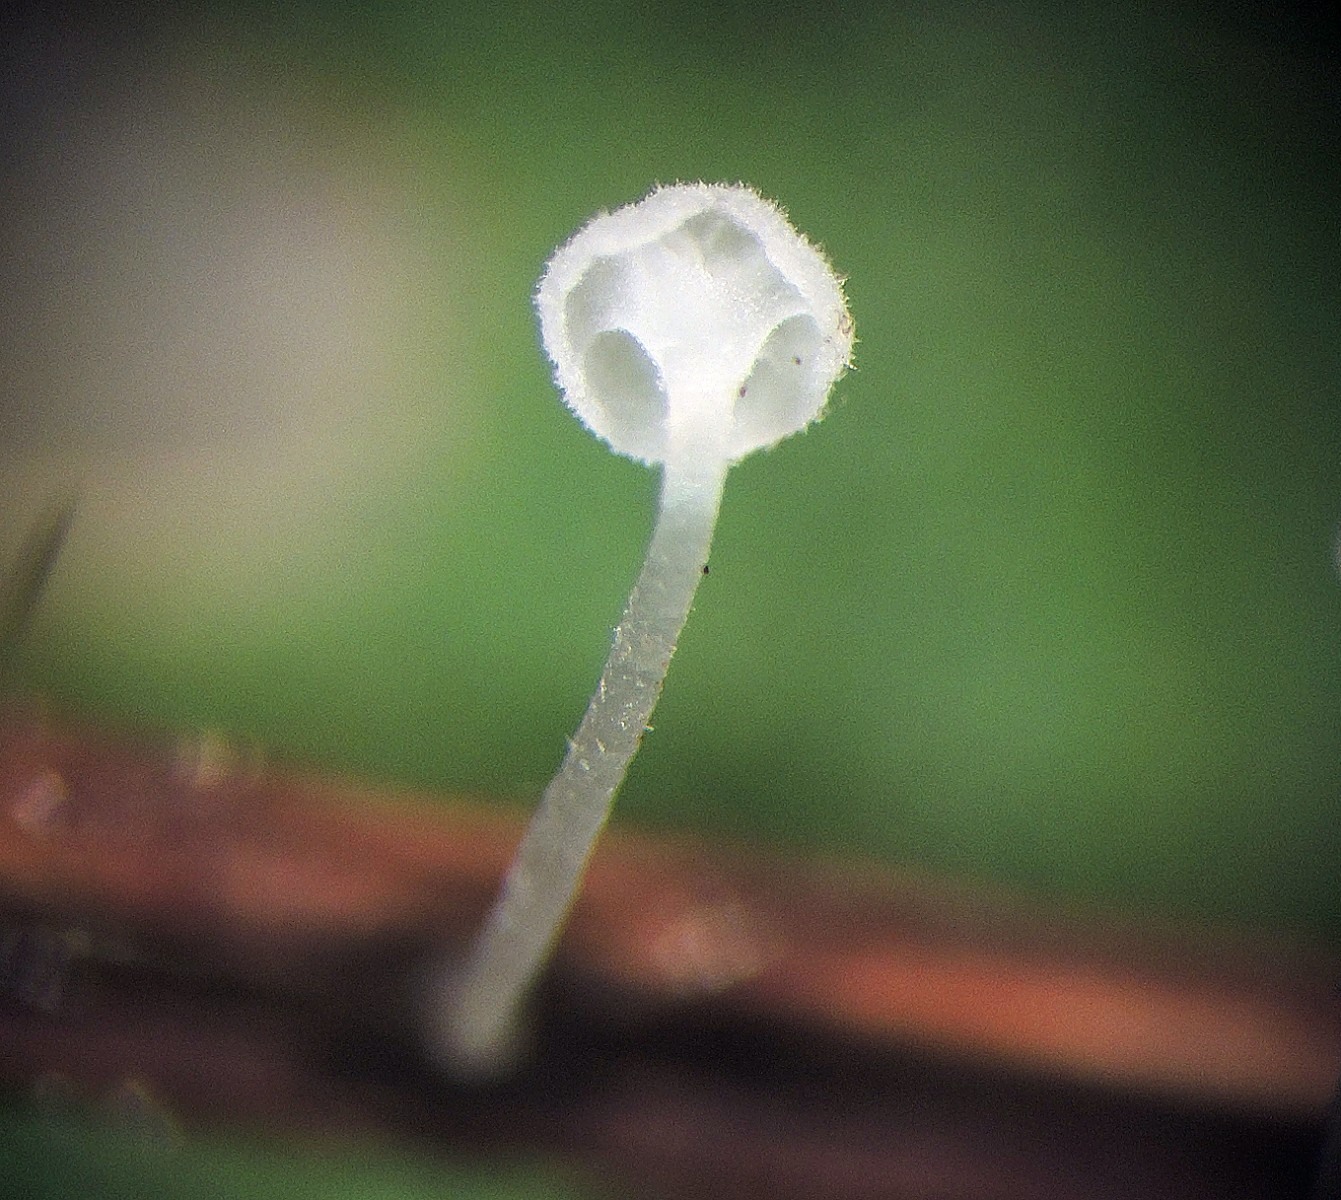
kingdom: Fungi
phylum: Basidiomycota
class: Agaricomycetes
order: Agaricales
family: Mycenaceae
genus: Hemimycena
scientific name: Hemimycena hirsuta
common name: håret huesvamp
